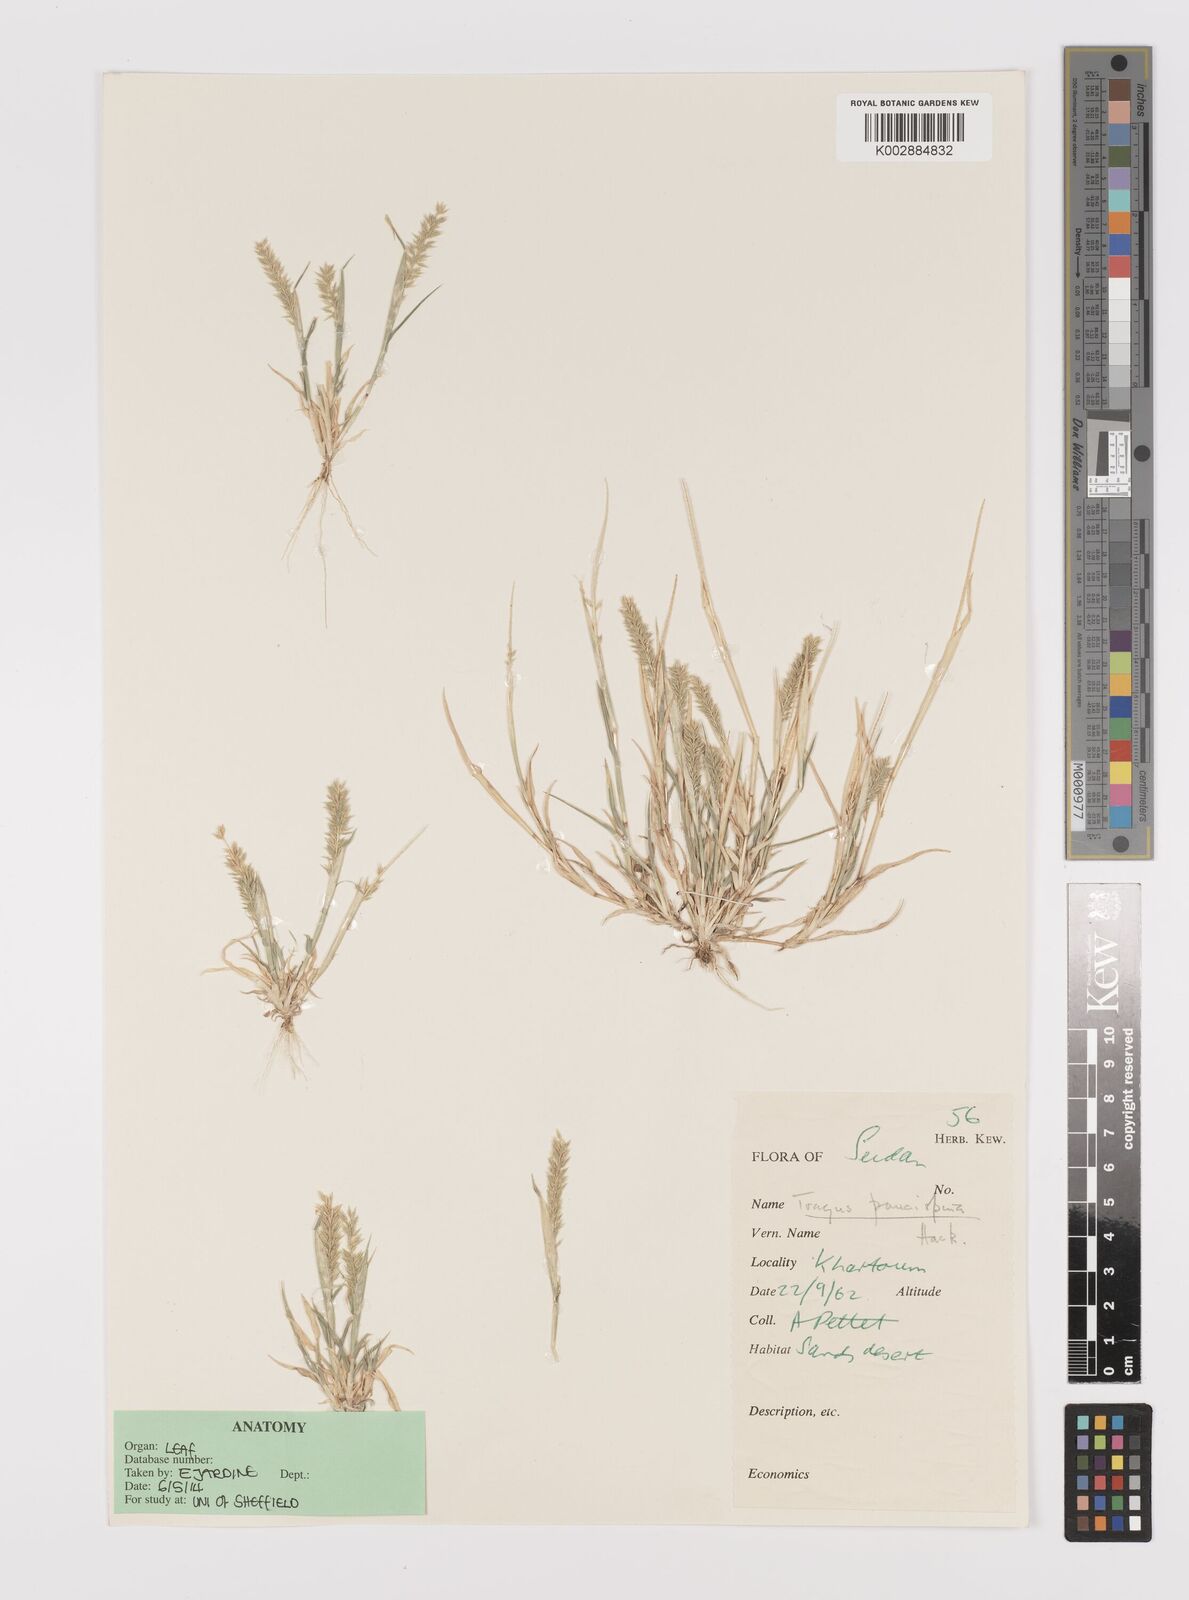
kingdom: Plantae
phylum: Tracheophyta
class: Liliopsida
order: Poales
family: Poaceae
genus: Tragus
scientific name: Tragus racemosus
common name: European bur-grass
